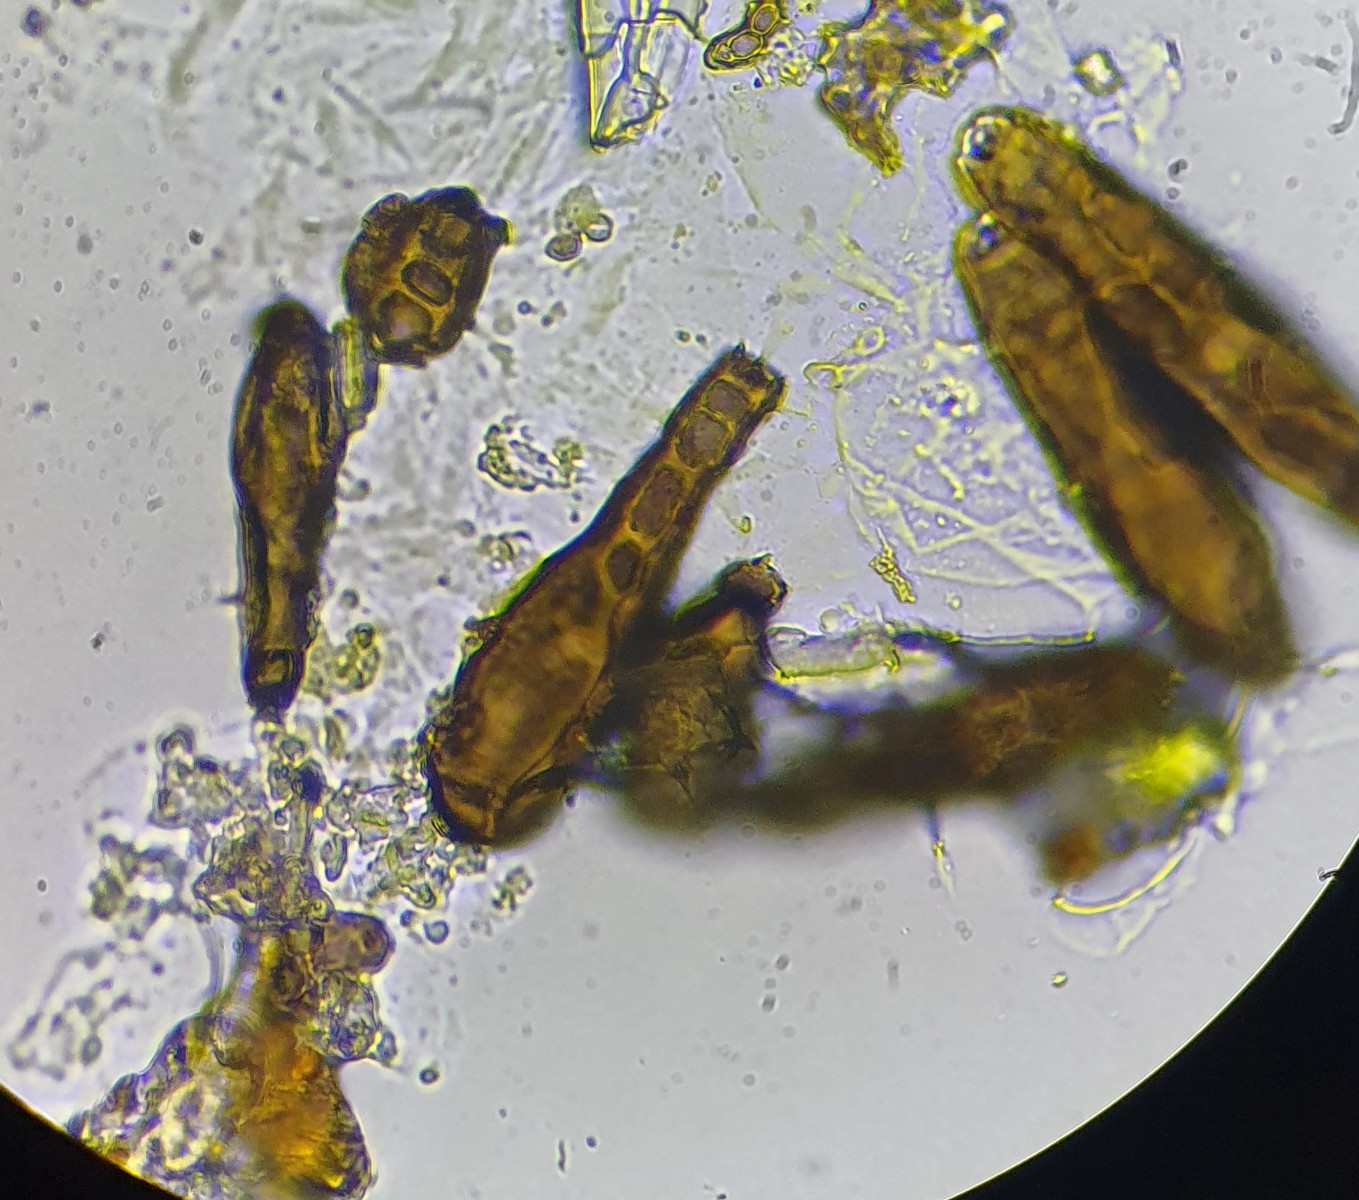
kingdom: Fungi
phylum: Ascomycota
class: Dothideomycetes
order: Pleosporales
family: Massarinaceae
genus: Helminthosporium
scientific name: Helminthosporium oligosporum
